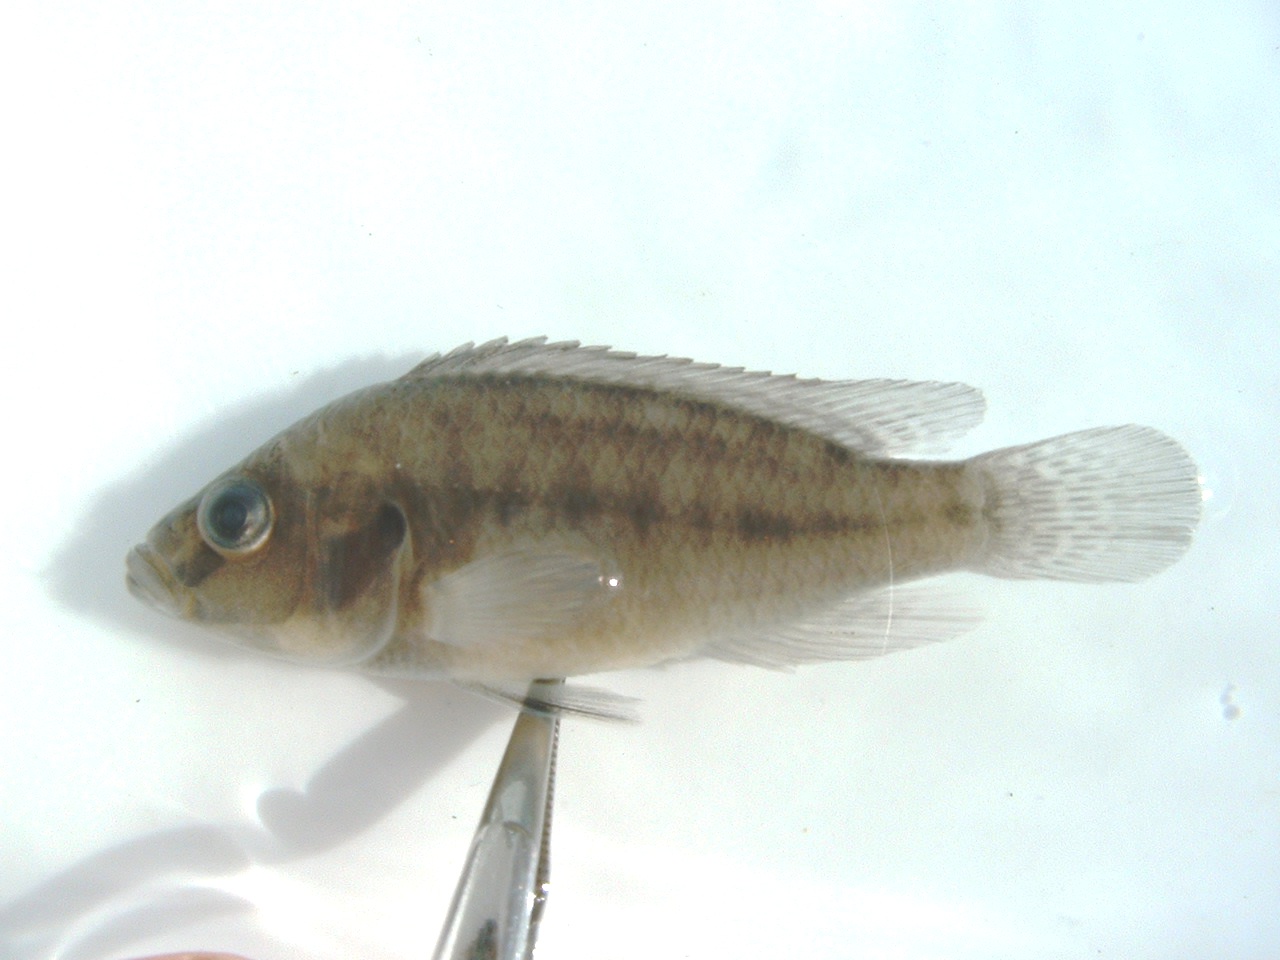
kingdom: Animalia
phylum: Chordata
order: Perciformes
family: Cichlidae
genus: Pseudocrenilabrus
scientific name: Pseudocrenilabrus philander
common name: Southern mouthbrooder
